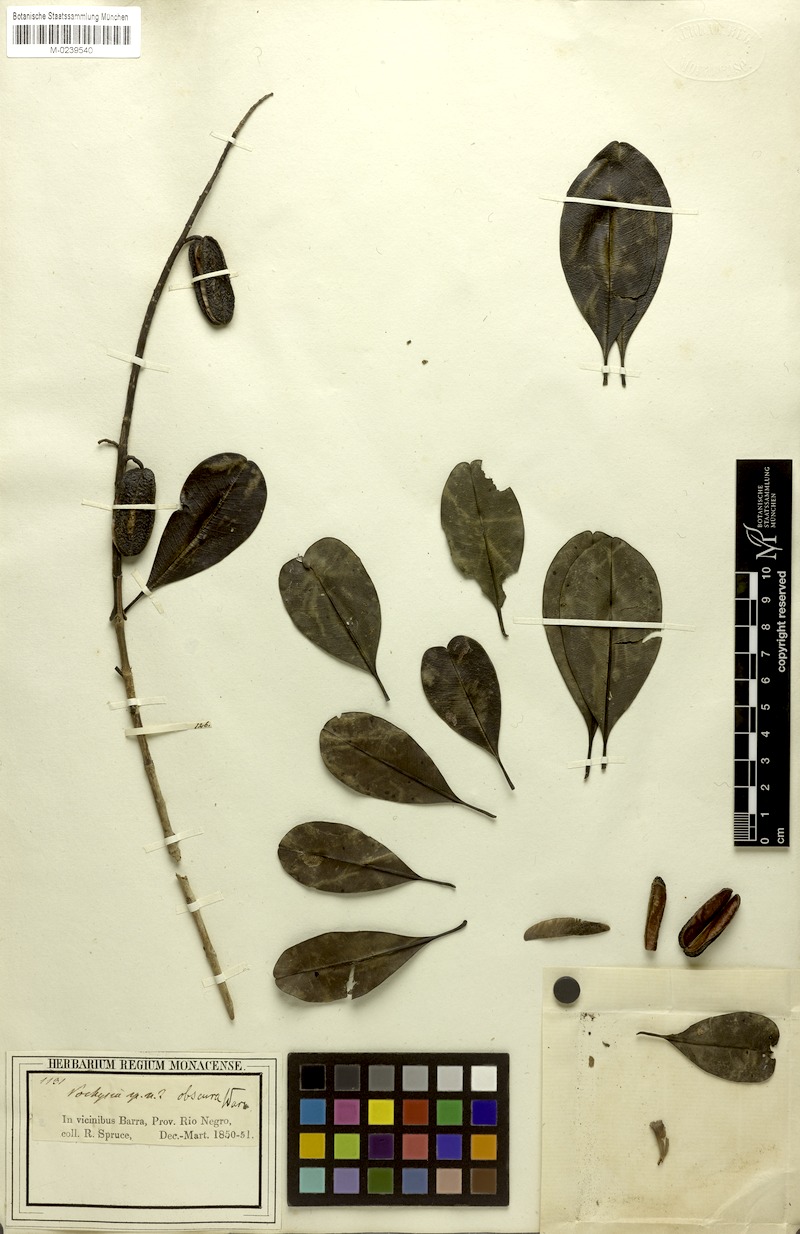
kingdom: Plantae
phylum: Tracheophyta
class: Magnoliopsida
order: Myrtales
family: Vochysiaceae
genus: Vochysia
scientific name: Vochysia obscura
